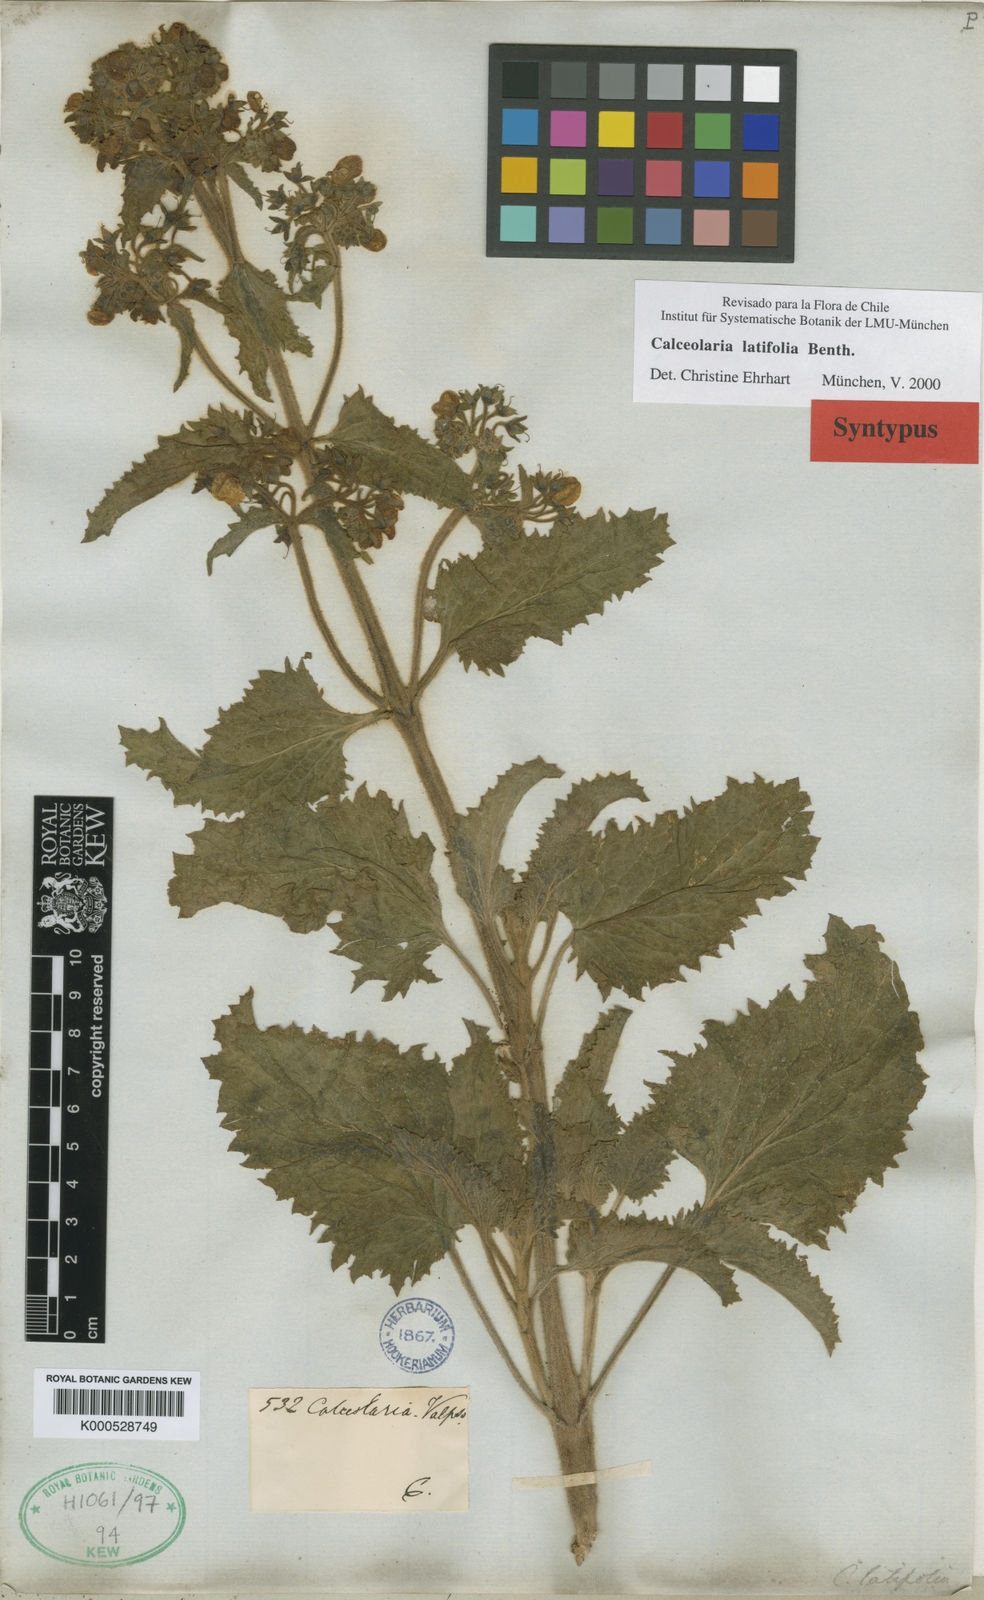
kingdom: Plantae
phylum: Tracheophyta
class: Magnoliopsida
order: Lamiales
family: Calceolariaceae
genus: Calceolaria
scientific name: Calceolaria latifolia
